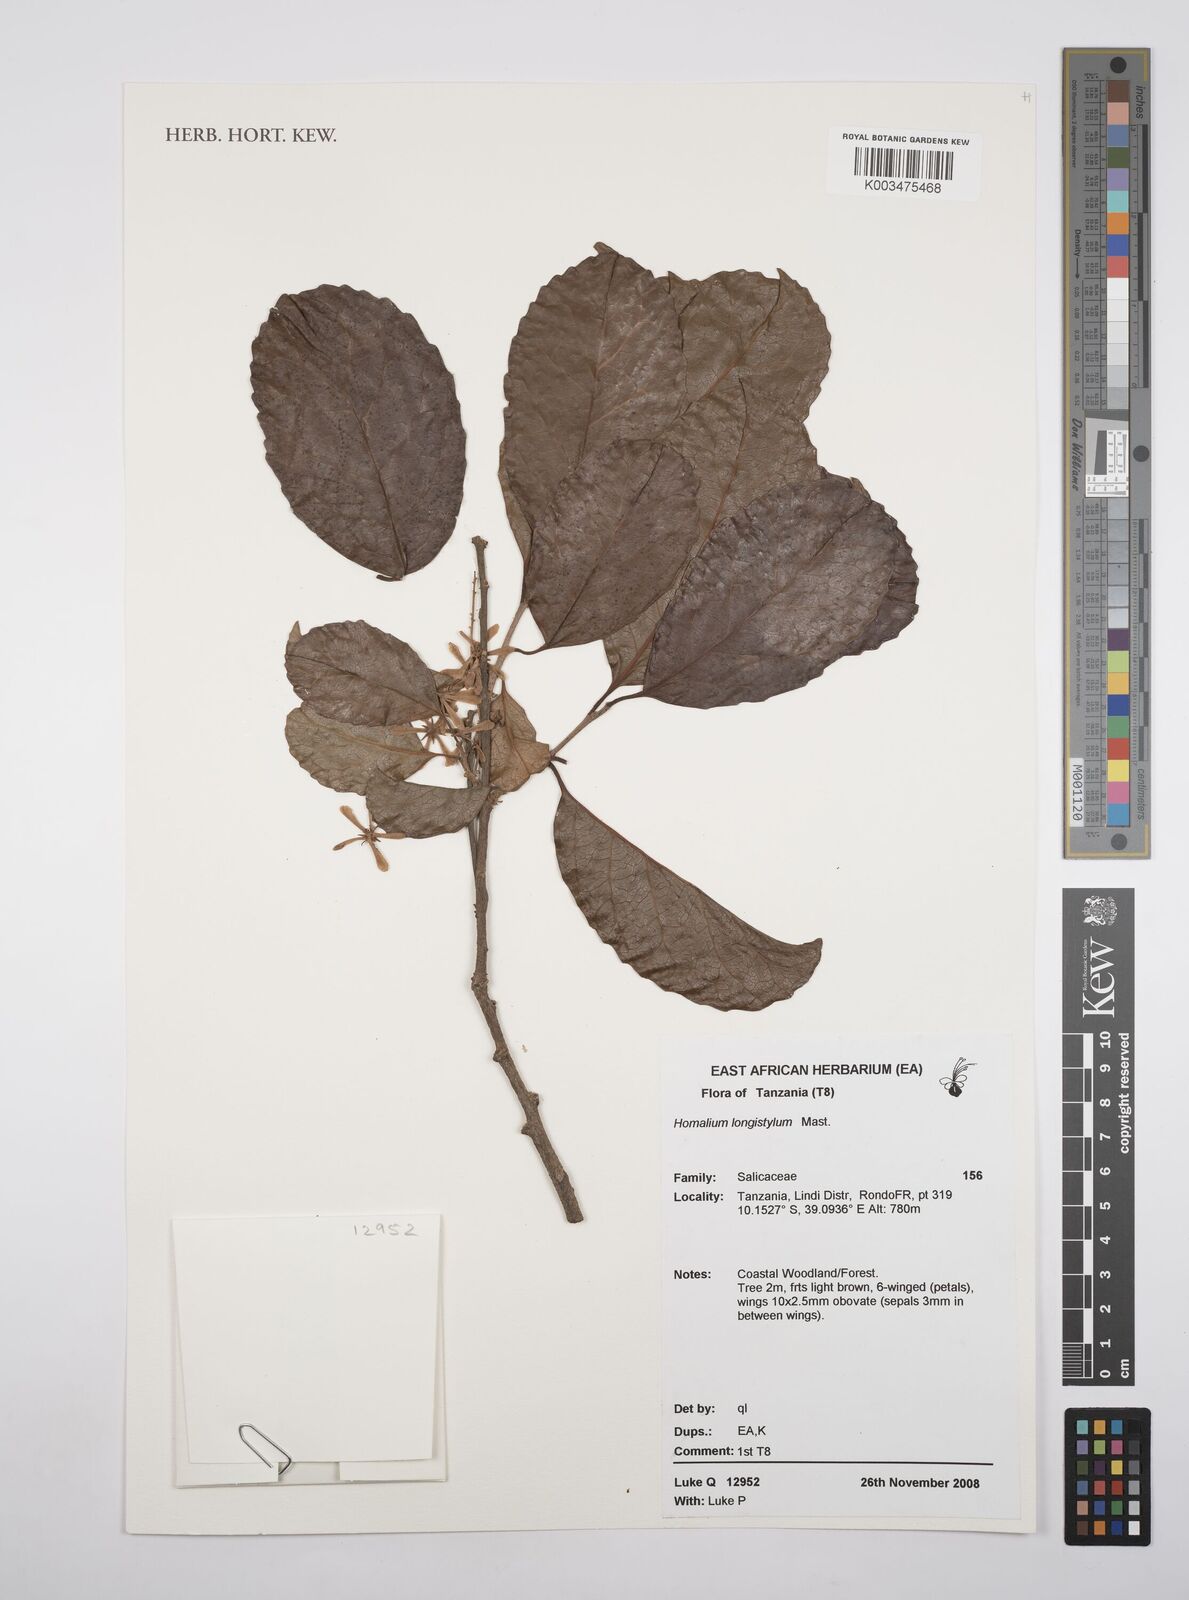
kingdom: Plantae
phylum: Tracheophyta
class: Magnoliopsida
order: Malpighiales
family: Salicaceae
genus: Homalium
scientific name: Homalium longistylum
